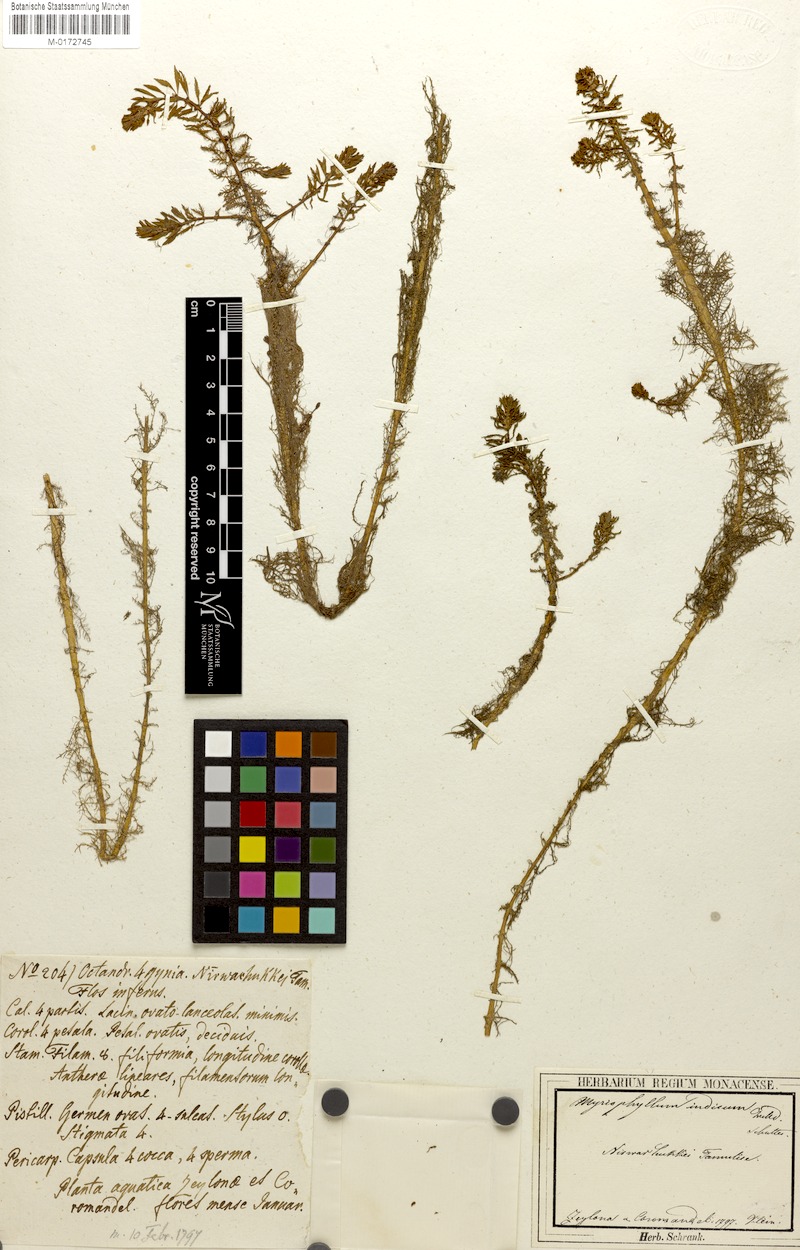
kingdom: Plantae
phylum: Tracheophyta
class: Magnoliopsida
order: Saxifragales
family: Haloragaceae
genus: Myriophyllum
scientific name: Myriophyllum indicum
